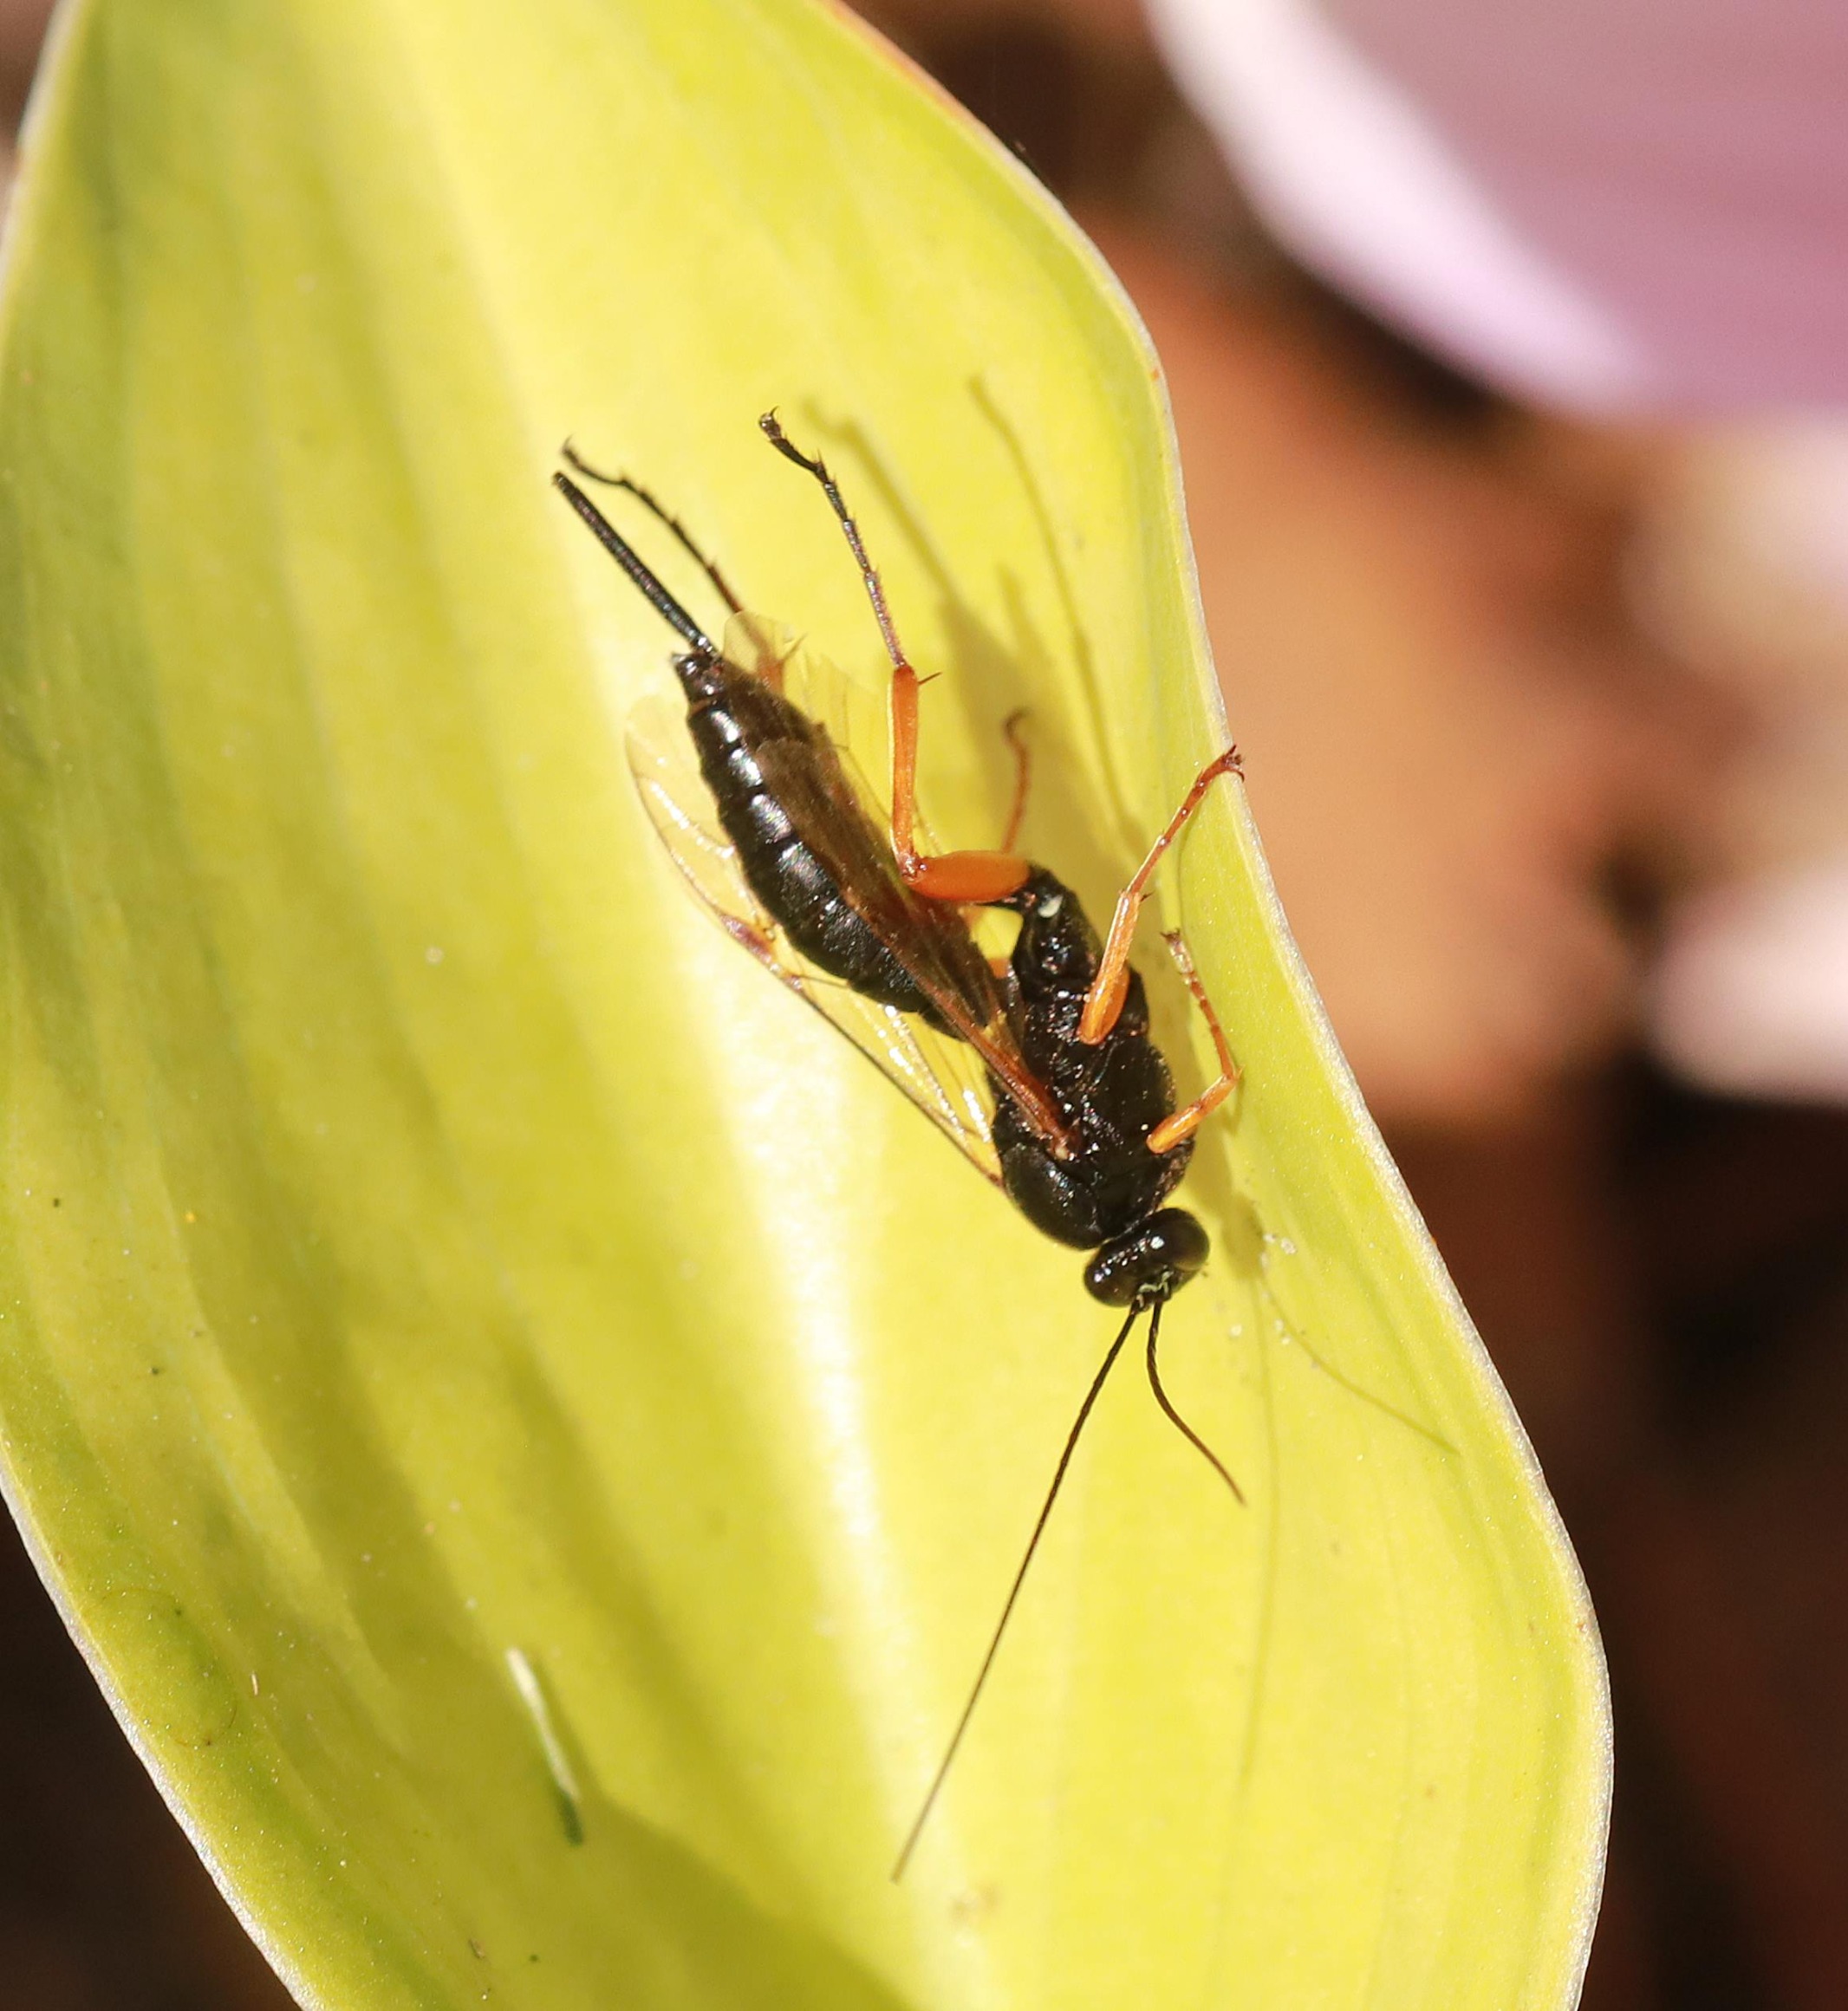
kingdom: Animalia
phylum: Arthropoda
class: Insecta
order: Hymenoptera
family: Ichneumonidae
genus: Pimpla
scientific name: Pimpla rufipes
